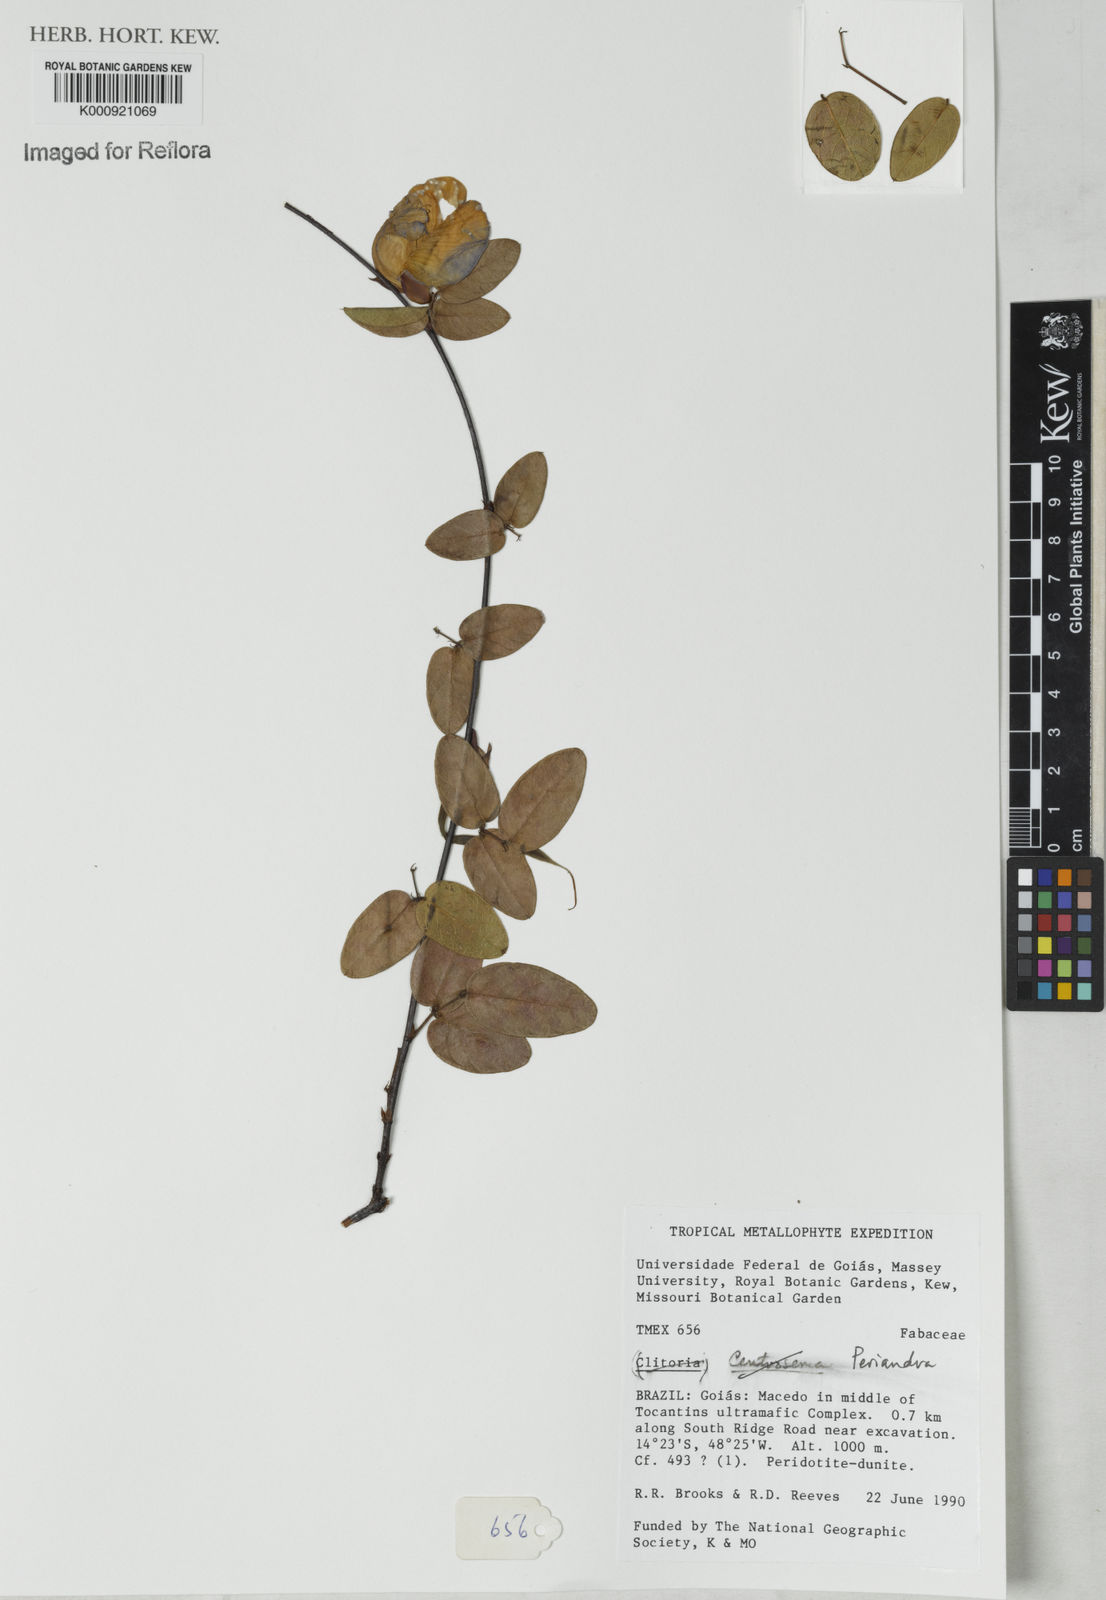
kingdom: Plantae
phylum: Tracheophyta
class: Magnoliopsida
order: Fabales
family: Fabaceae
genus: Periandra
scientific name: Periandra
